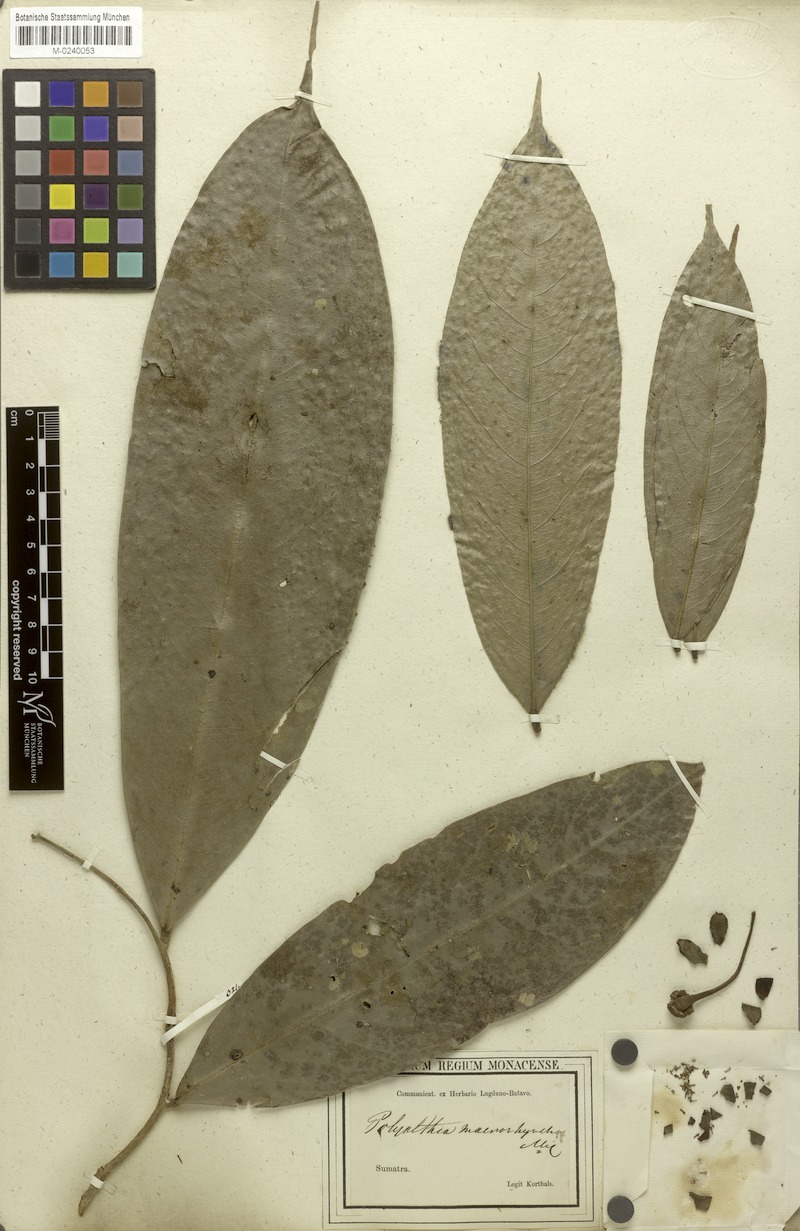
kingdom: Plantae
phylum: Tracheophyta
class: Magnoliopsida
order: Magnoliales
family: Annonaceae
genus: Polyalthia
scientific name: Polyalthia cauliflora
